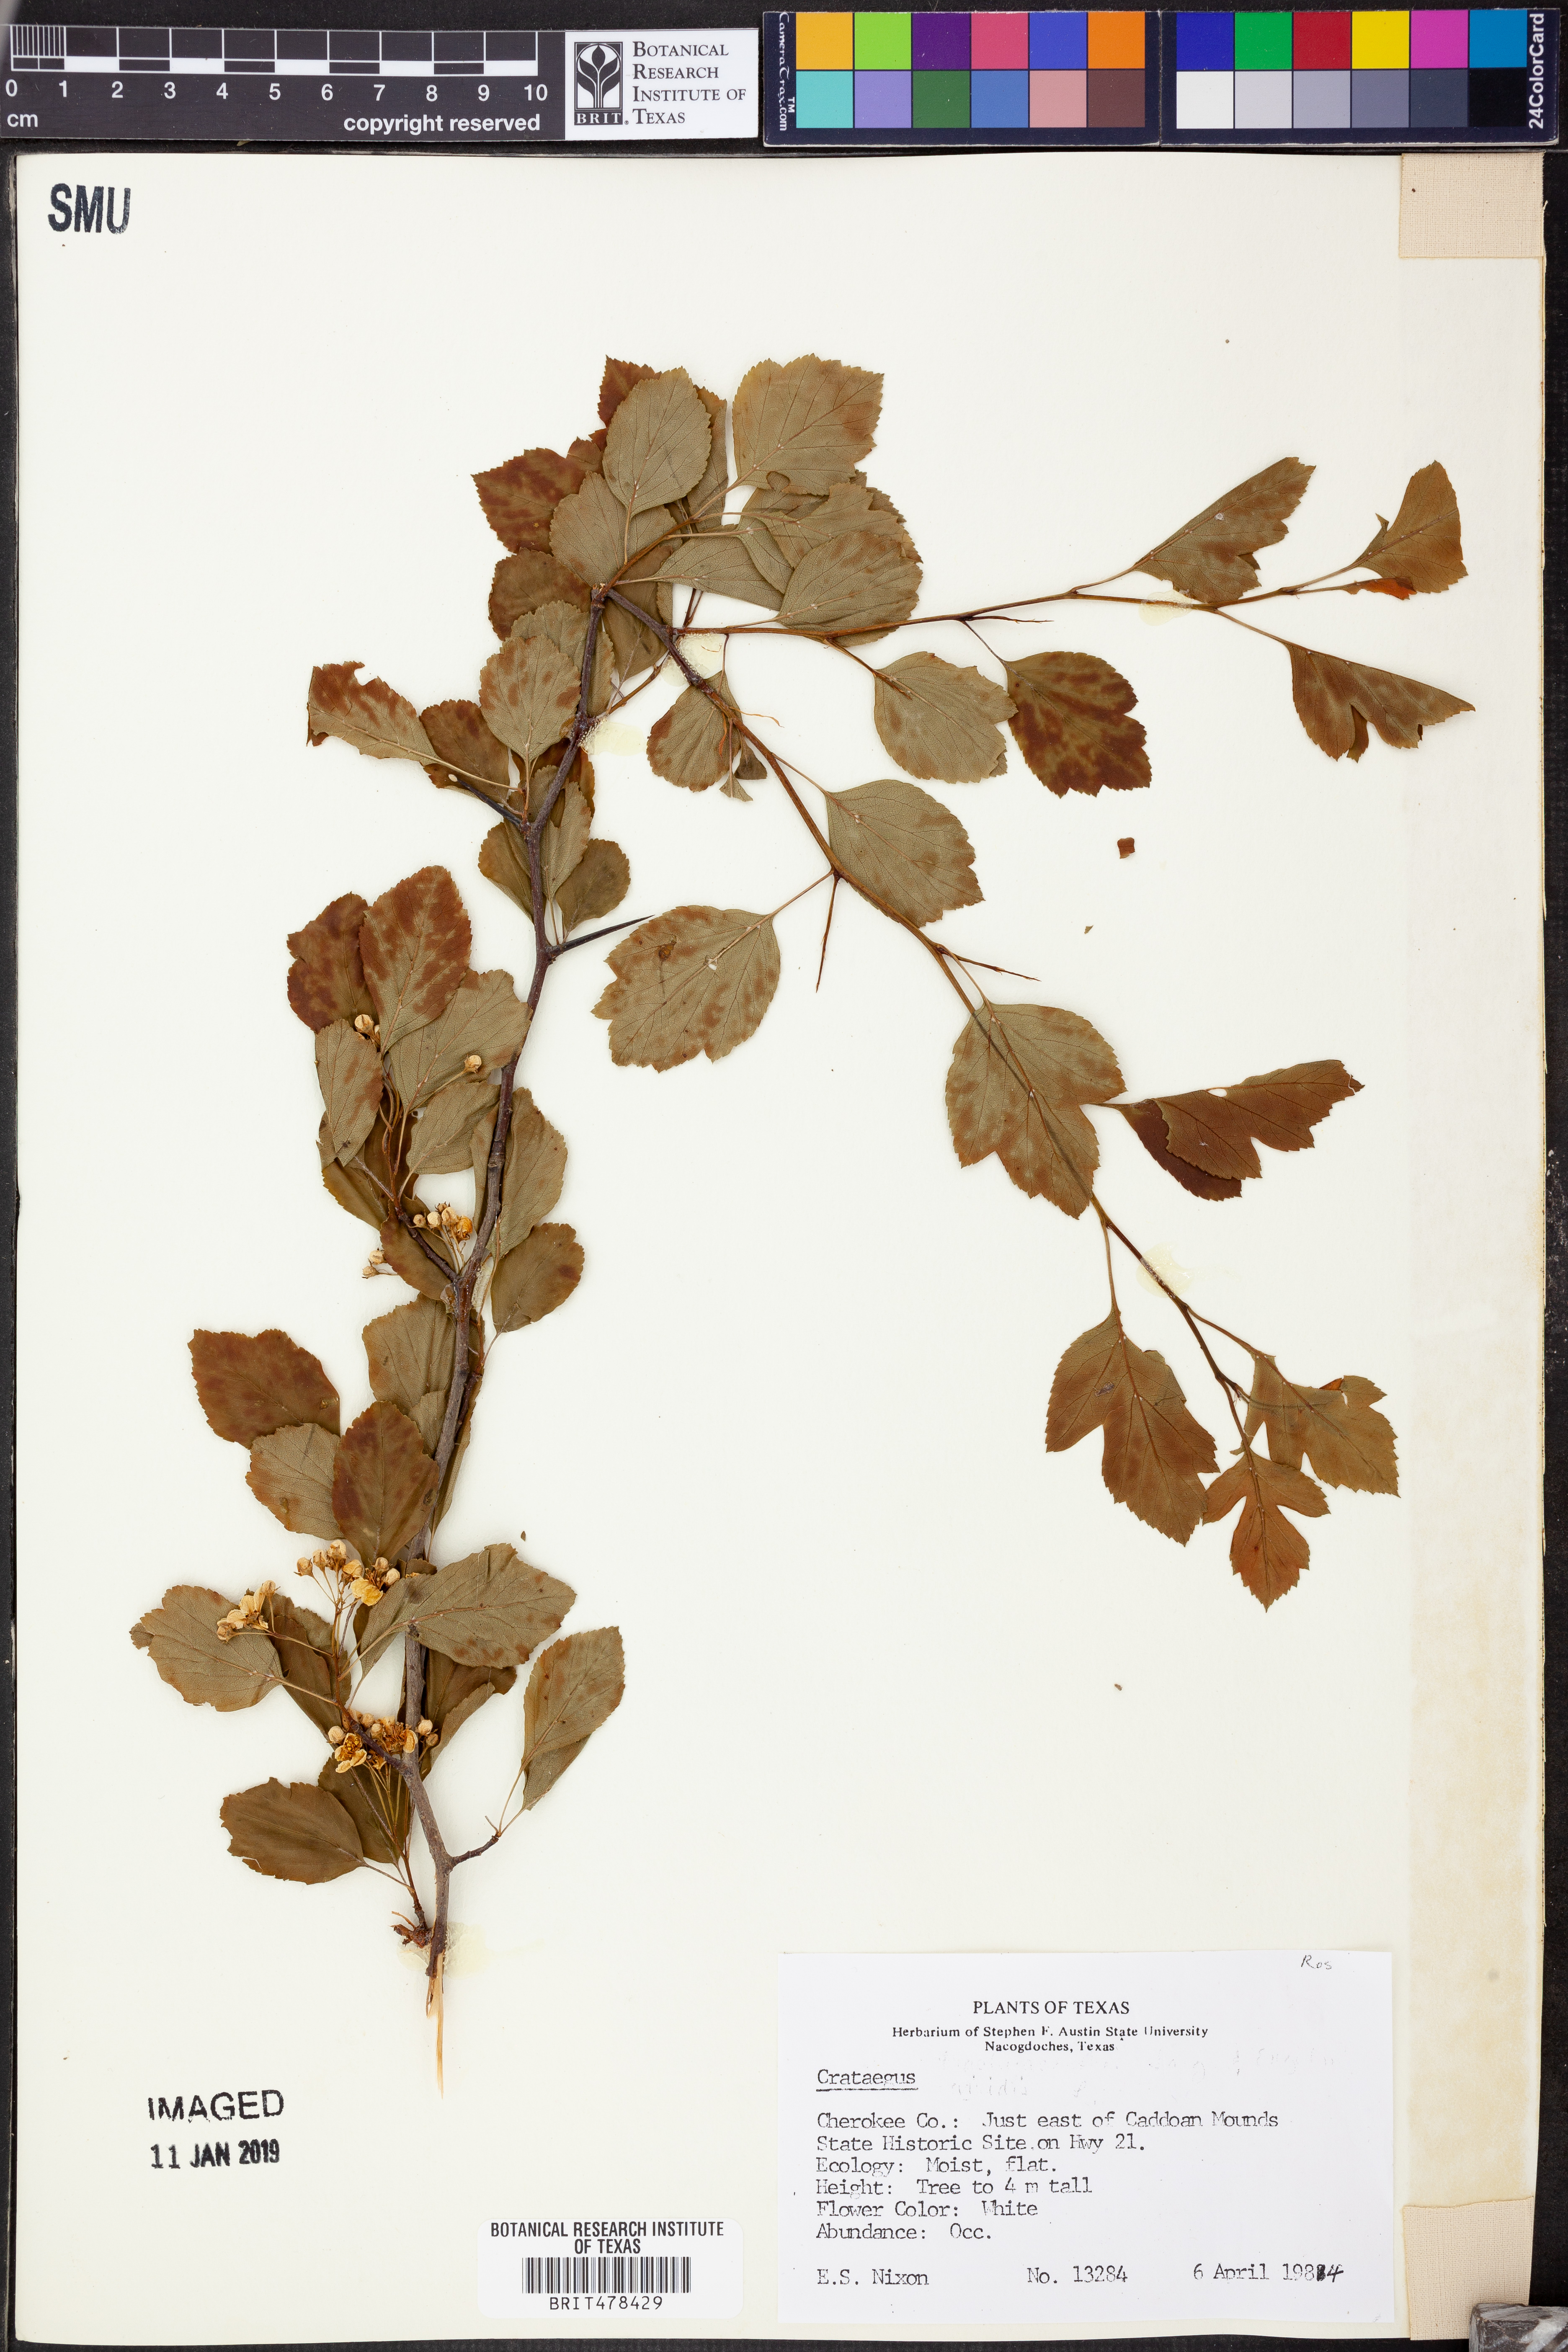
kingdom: Plantae
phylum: Tracheophyta
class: Magnoliopsida
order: Rosales
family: Rosaceae
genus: Crataegus
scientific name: Crataegus
